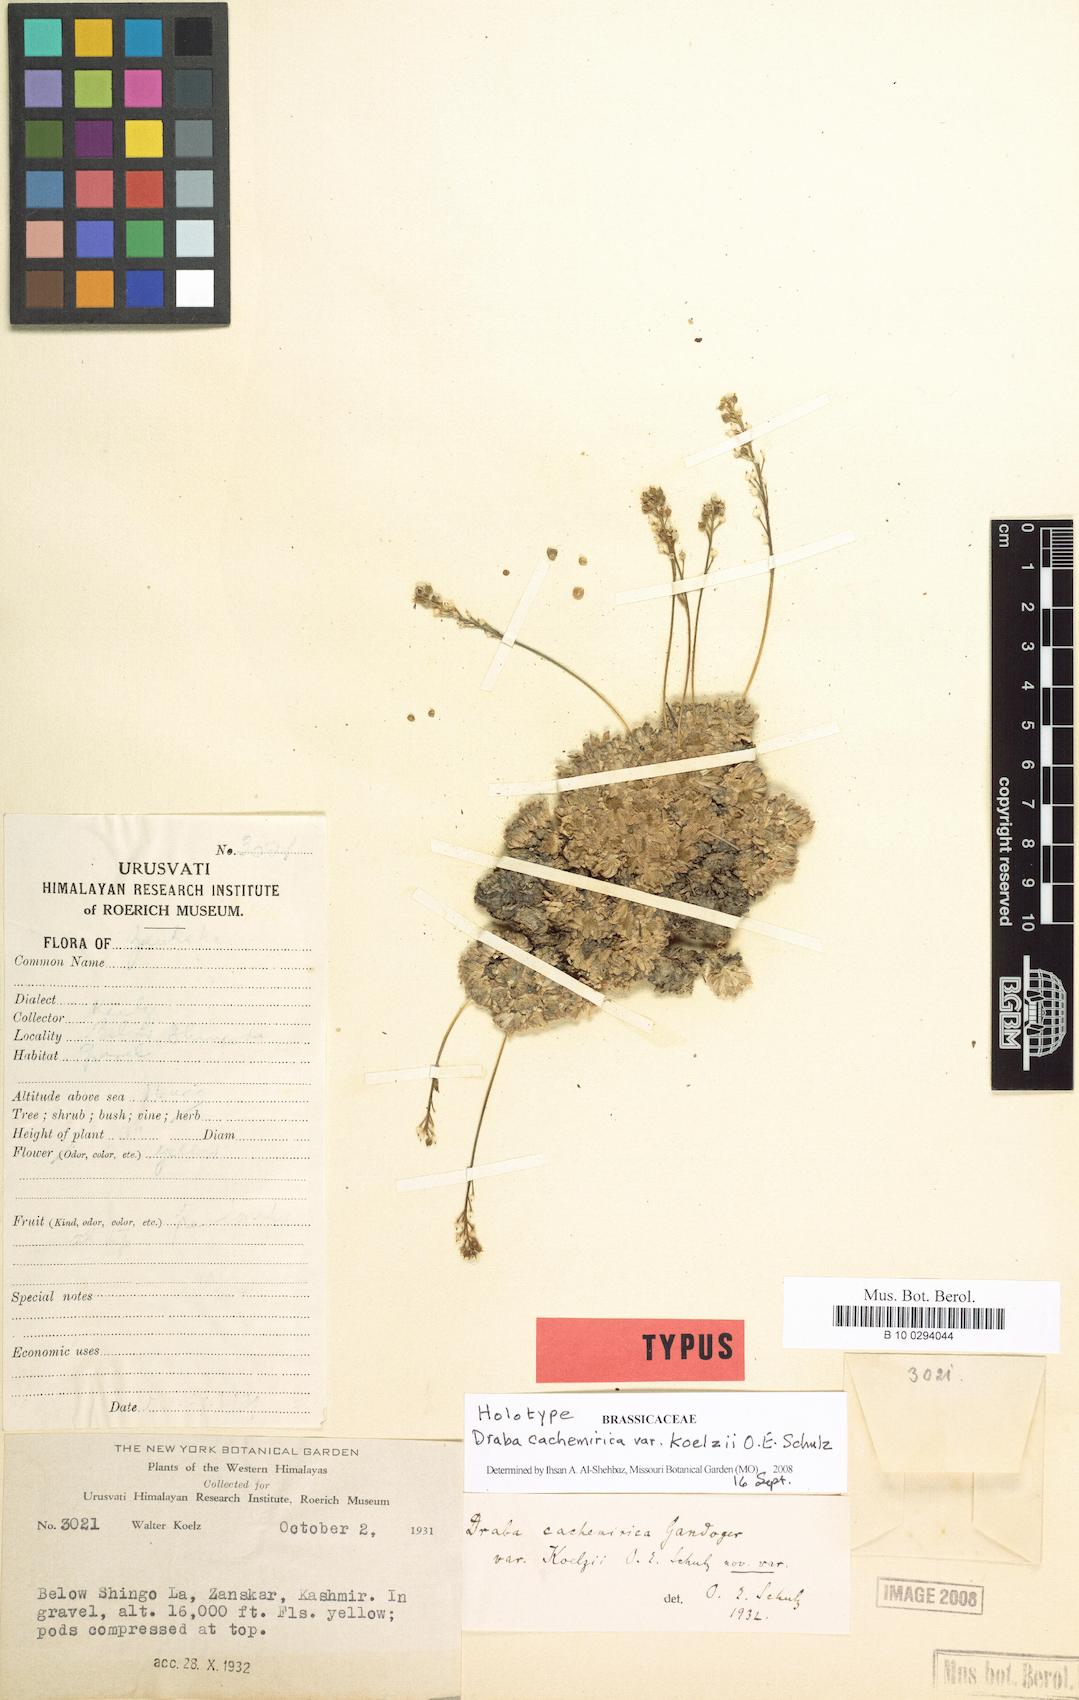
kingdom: Plantae
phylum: Tracheophyta
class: Magnoliopsida
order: Brassicales
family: Brassicaceae
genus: Draba
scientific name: Draba cachemirica
